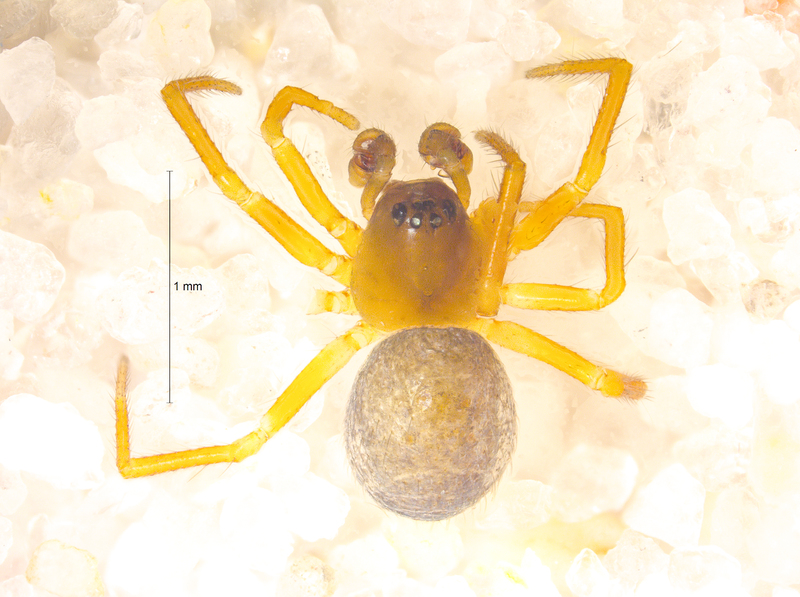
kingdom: Animalia
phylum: Arthropoda
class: Arachnida
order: Araneae
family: Linyphiidae
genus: Maso
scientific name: Maso sundevalli
